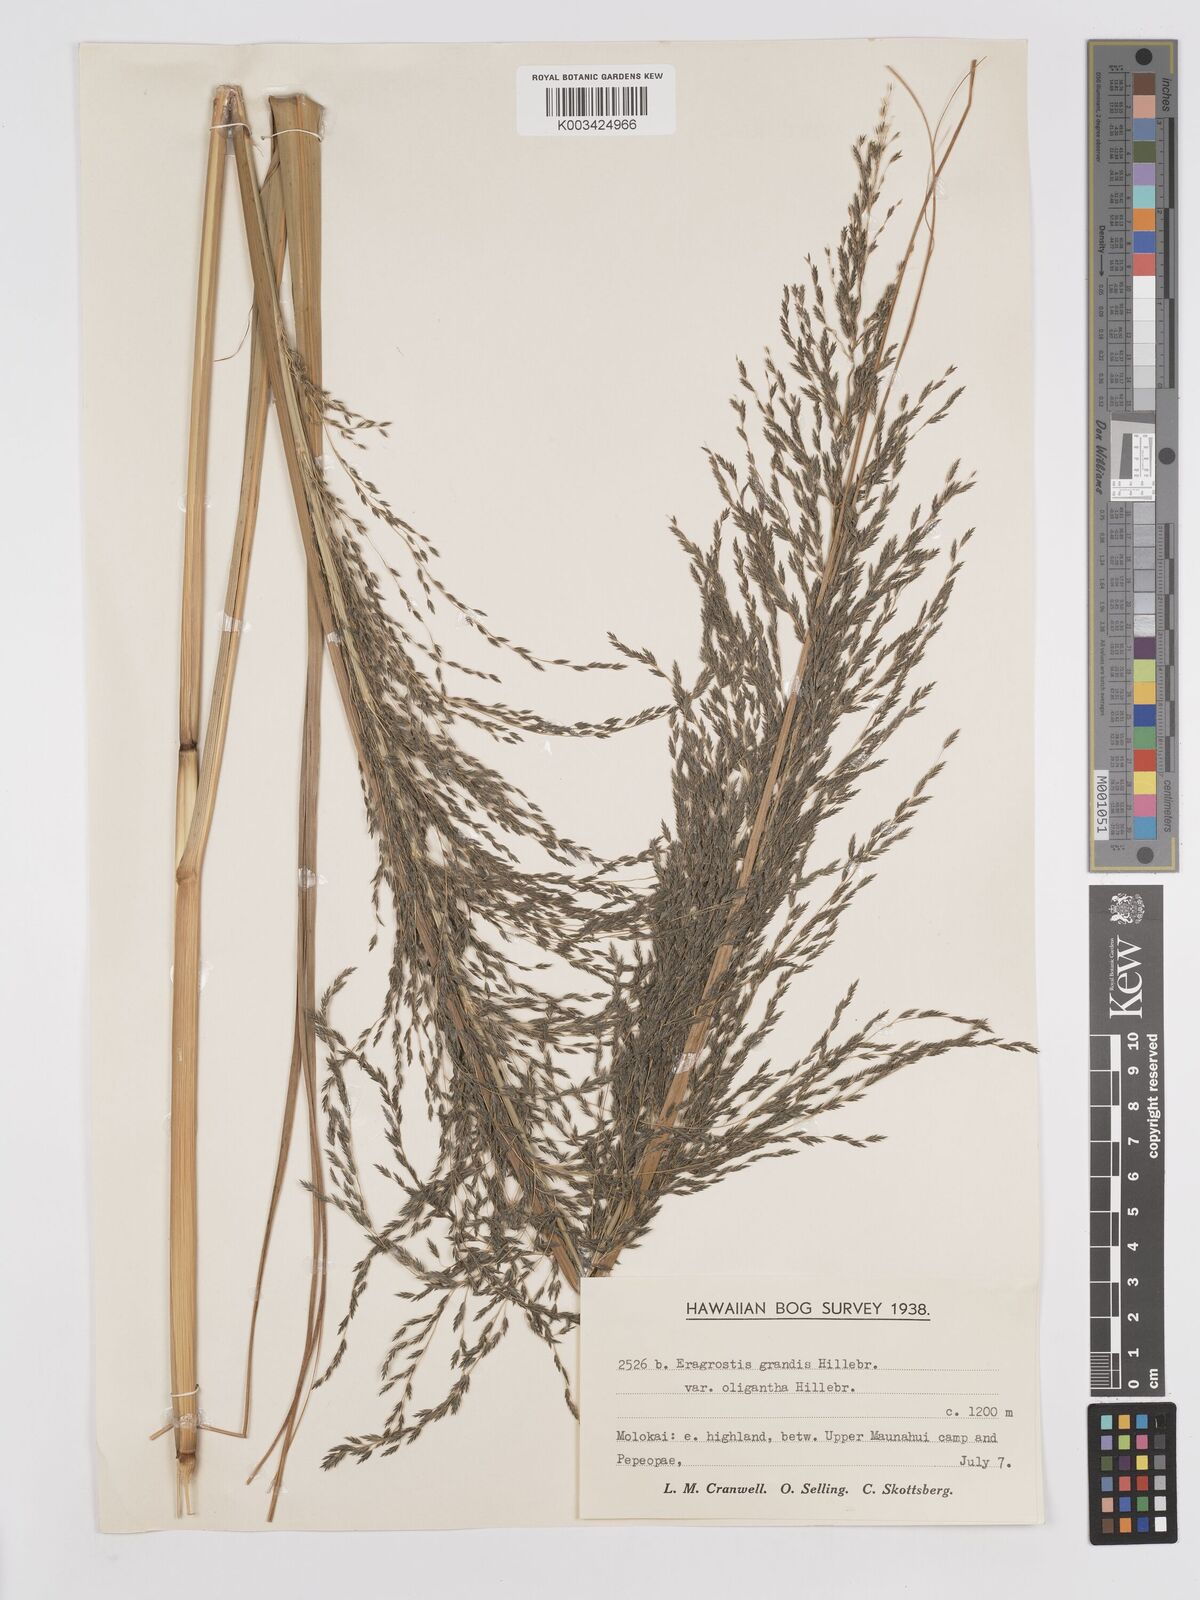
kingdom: Plantae
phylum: Tracheophyta
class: Liliopsida
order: Poales
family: Poaceae
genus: Eragrostis
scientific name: Eragrostis grandis
